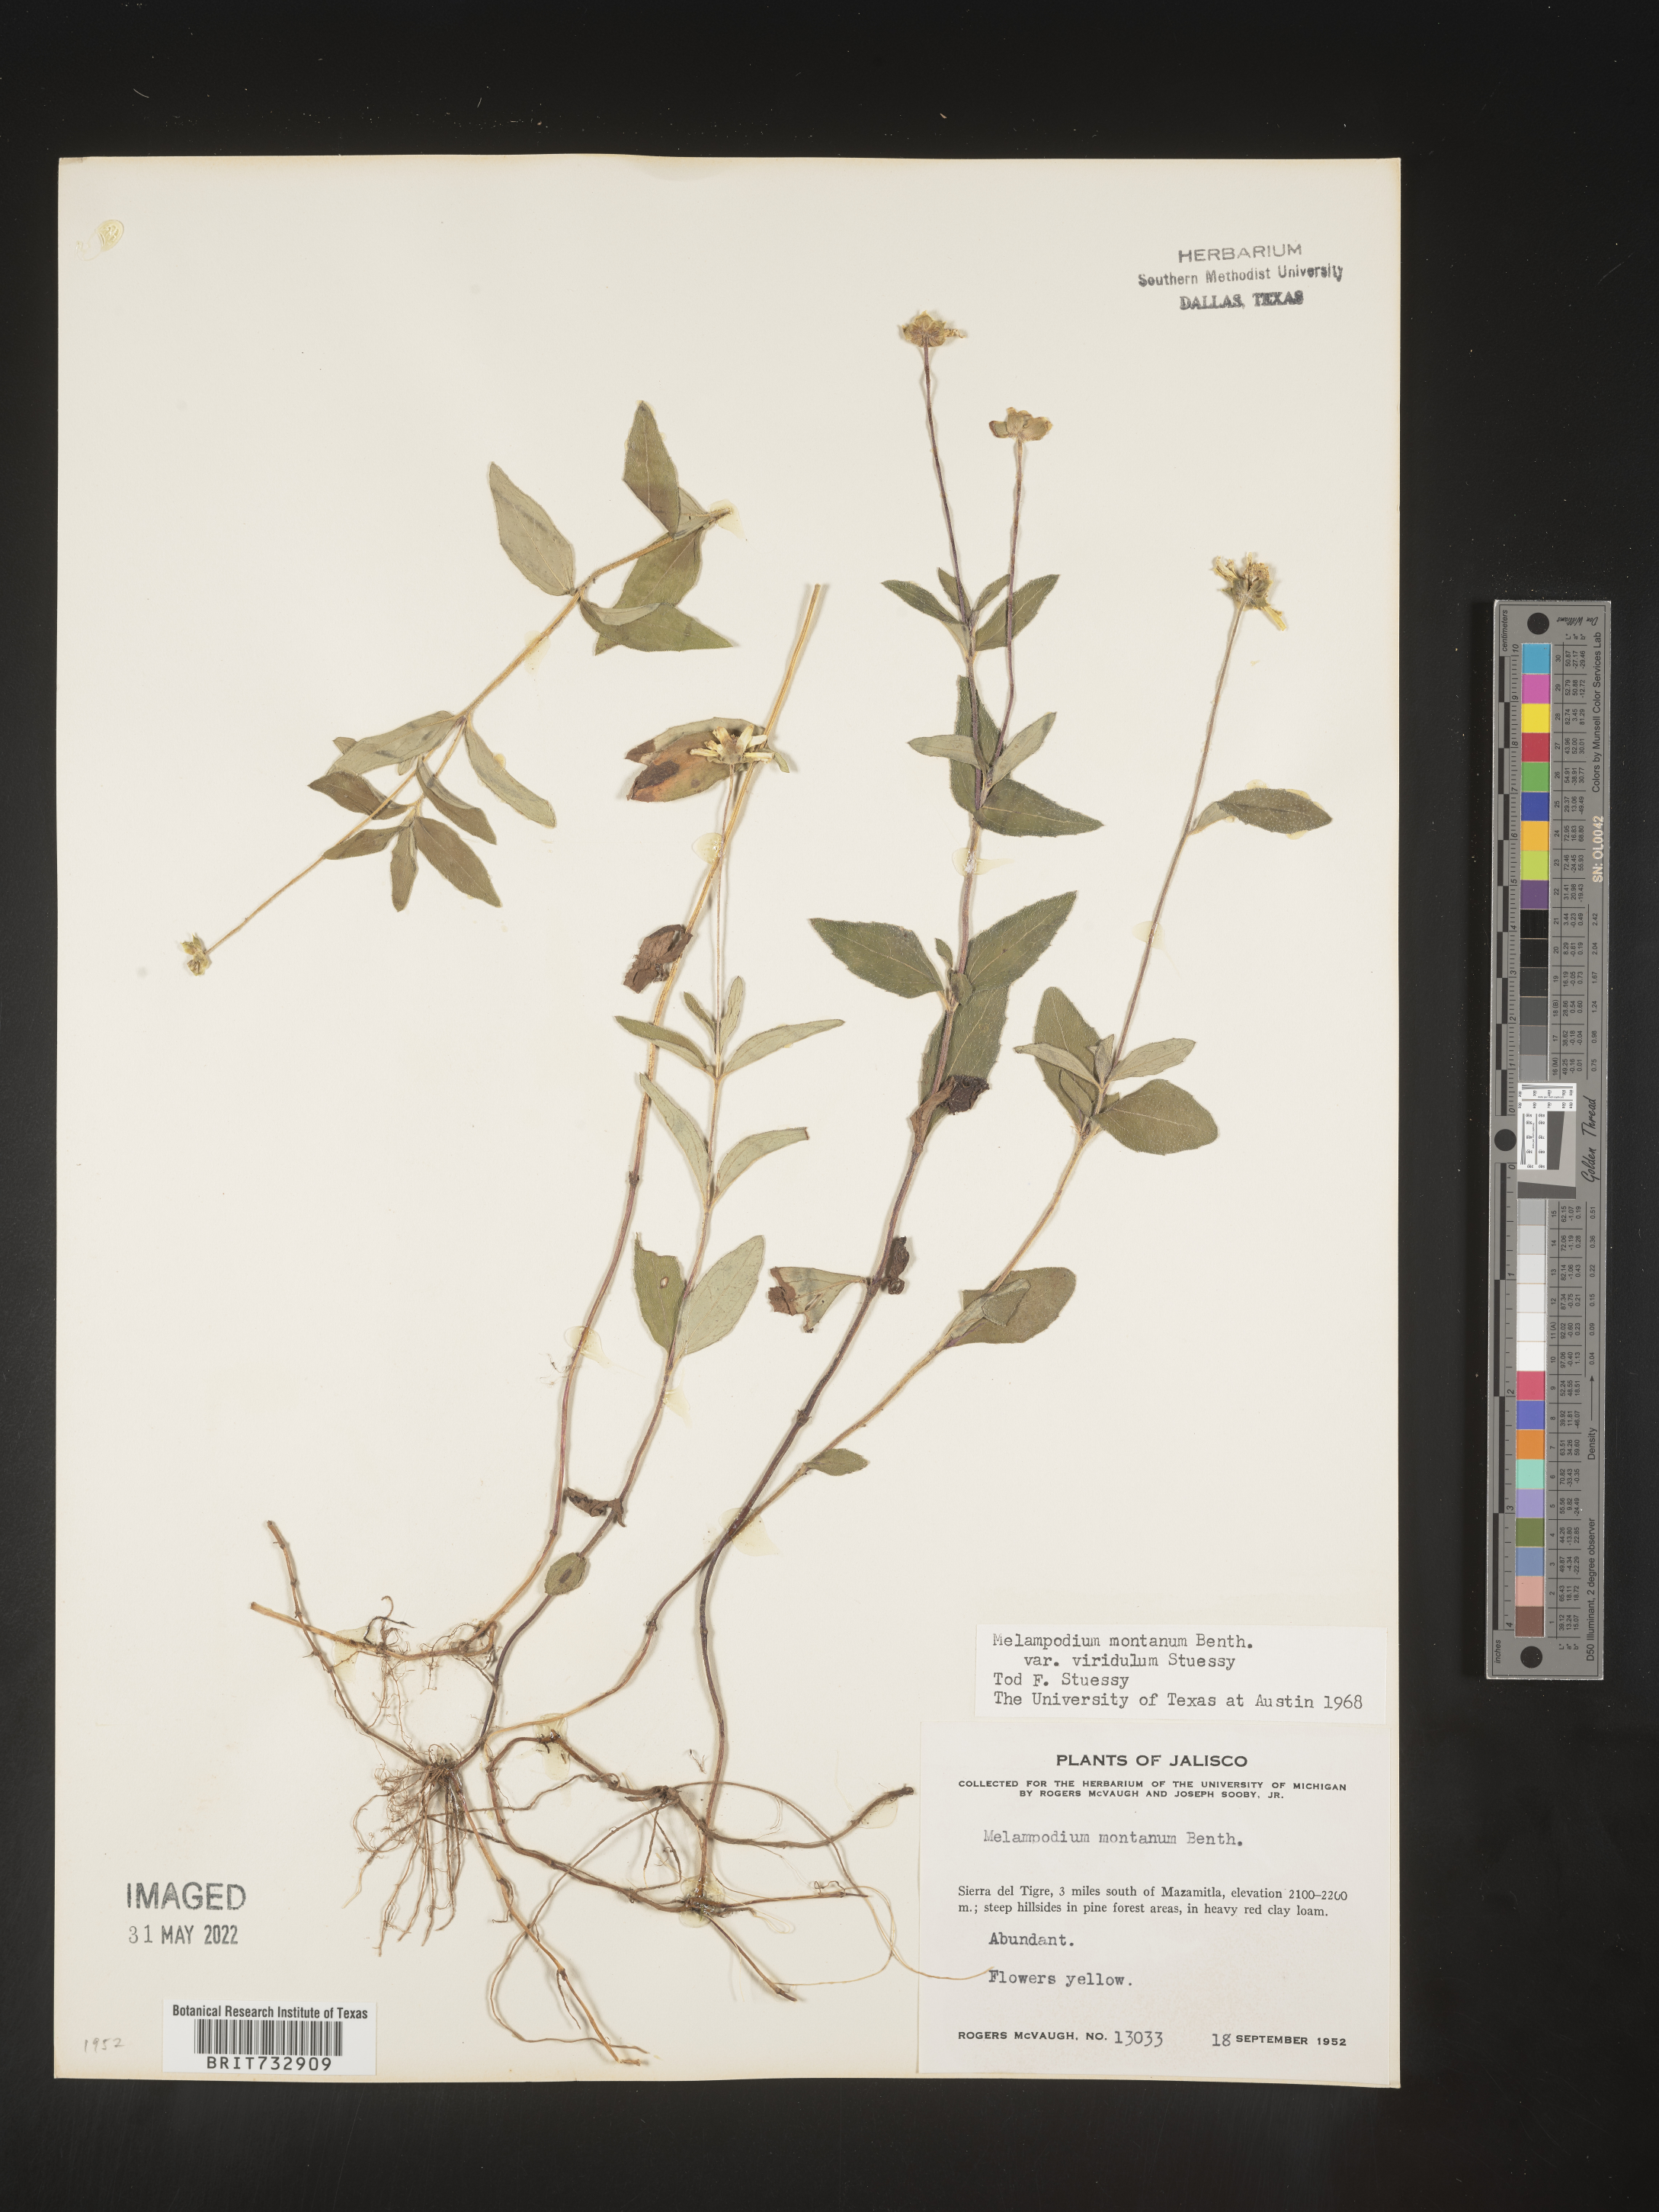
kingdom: Plantae
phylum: Tracheophyta
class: Magnoliopsida
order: Asterales
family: Asteraceae
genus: Melampodium
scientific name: Melampodium
